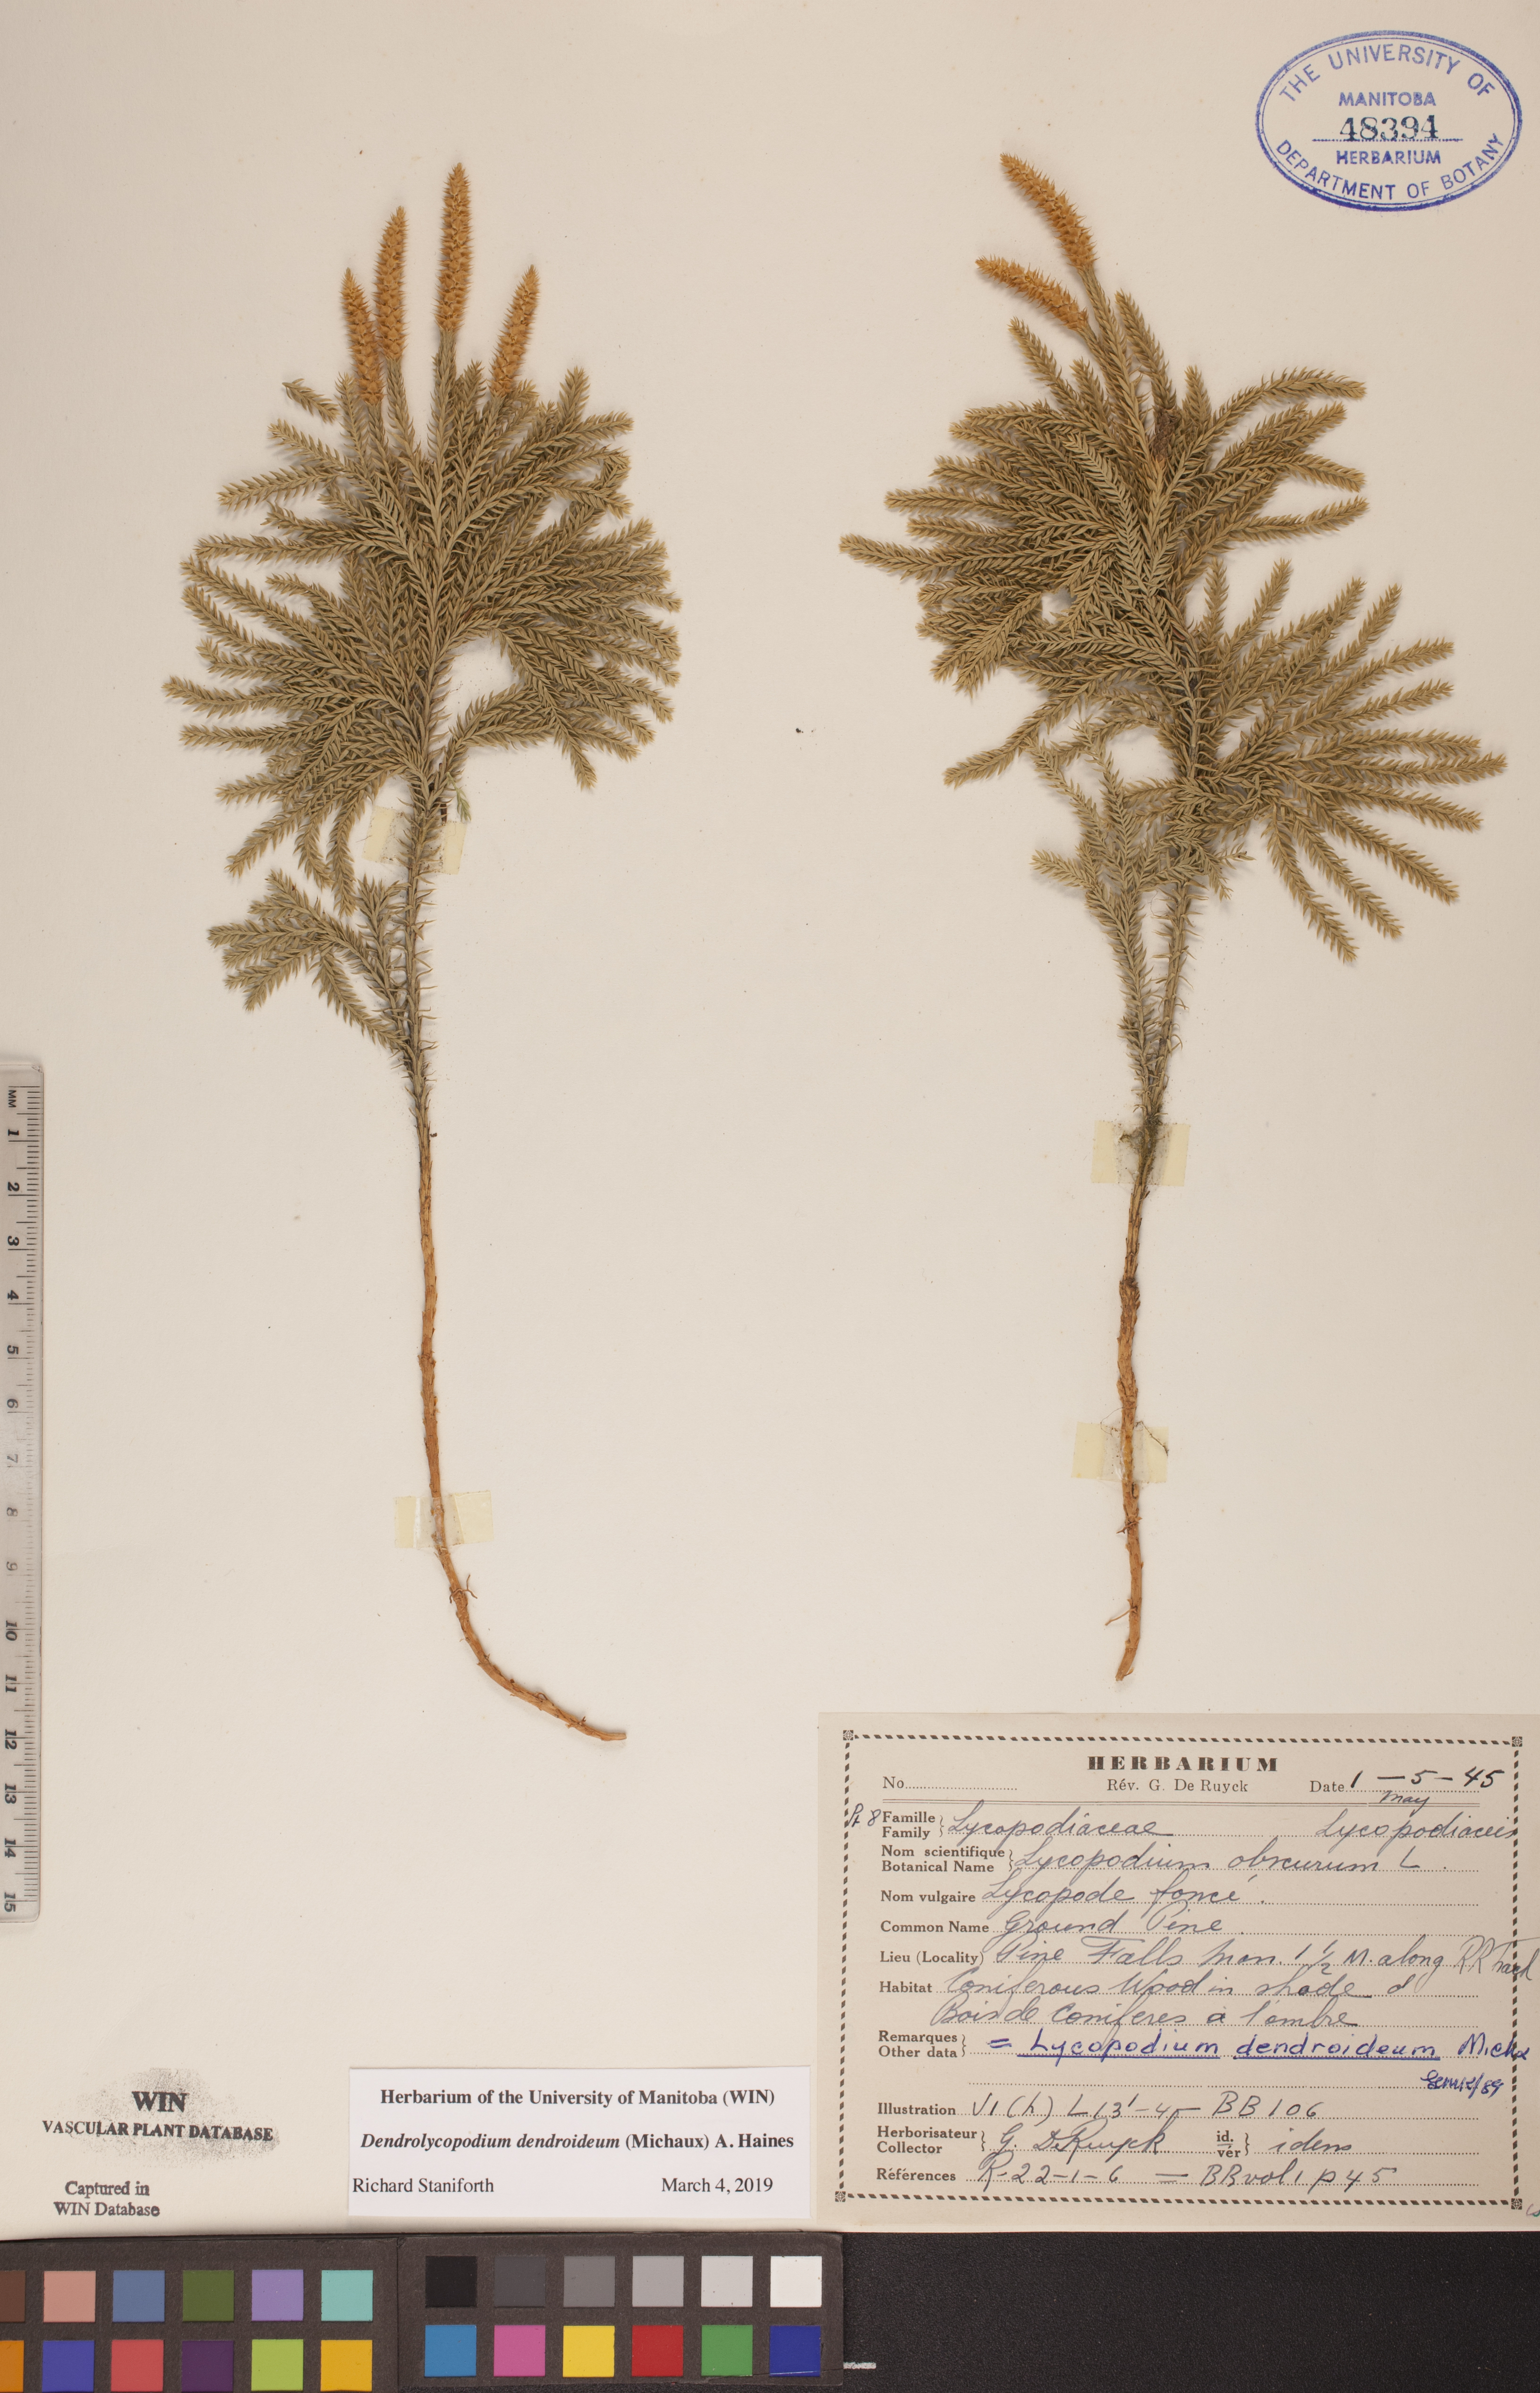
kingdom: Plantae
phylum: Tracheophyta
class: Lycopodiopsida
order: Lycopodiales
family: Lycopodiaceae
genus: Dendrolycopodium
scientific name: Dendrolycopodium dendroideum
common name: Northern tree-clubmoss
